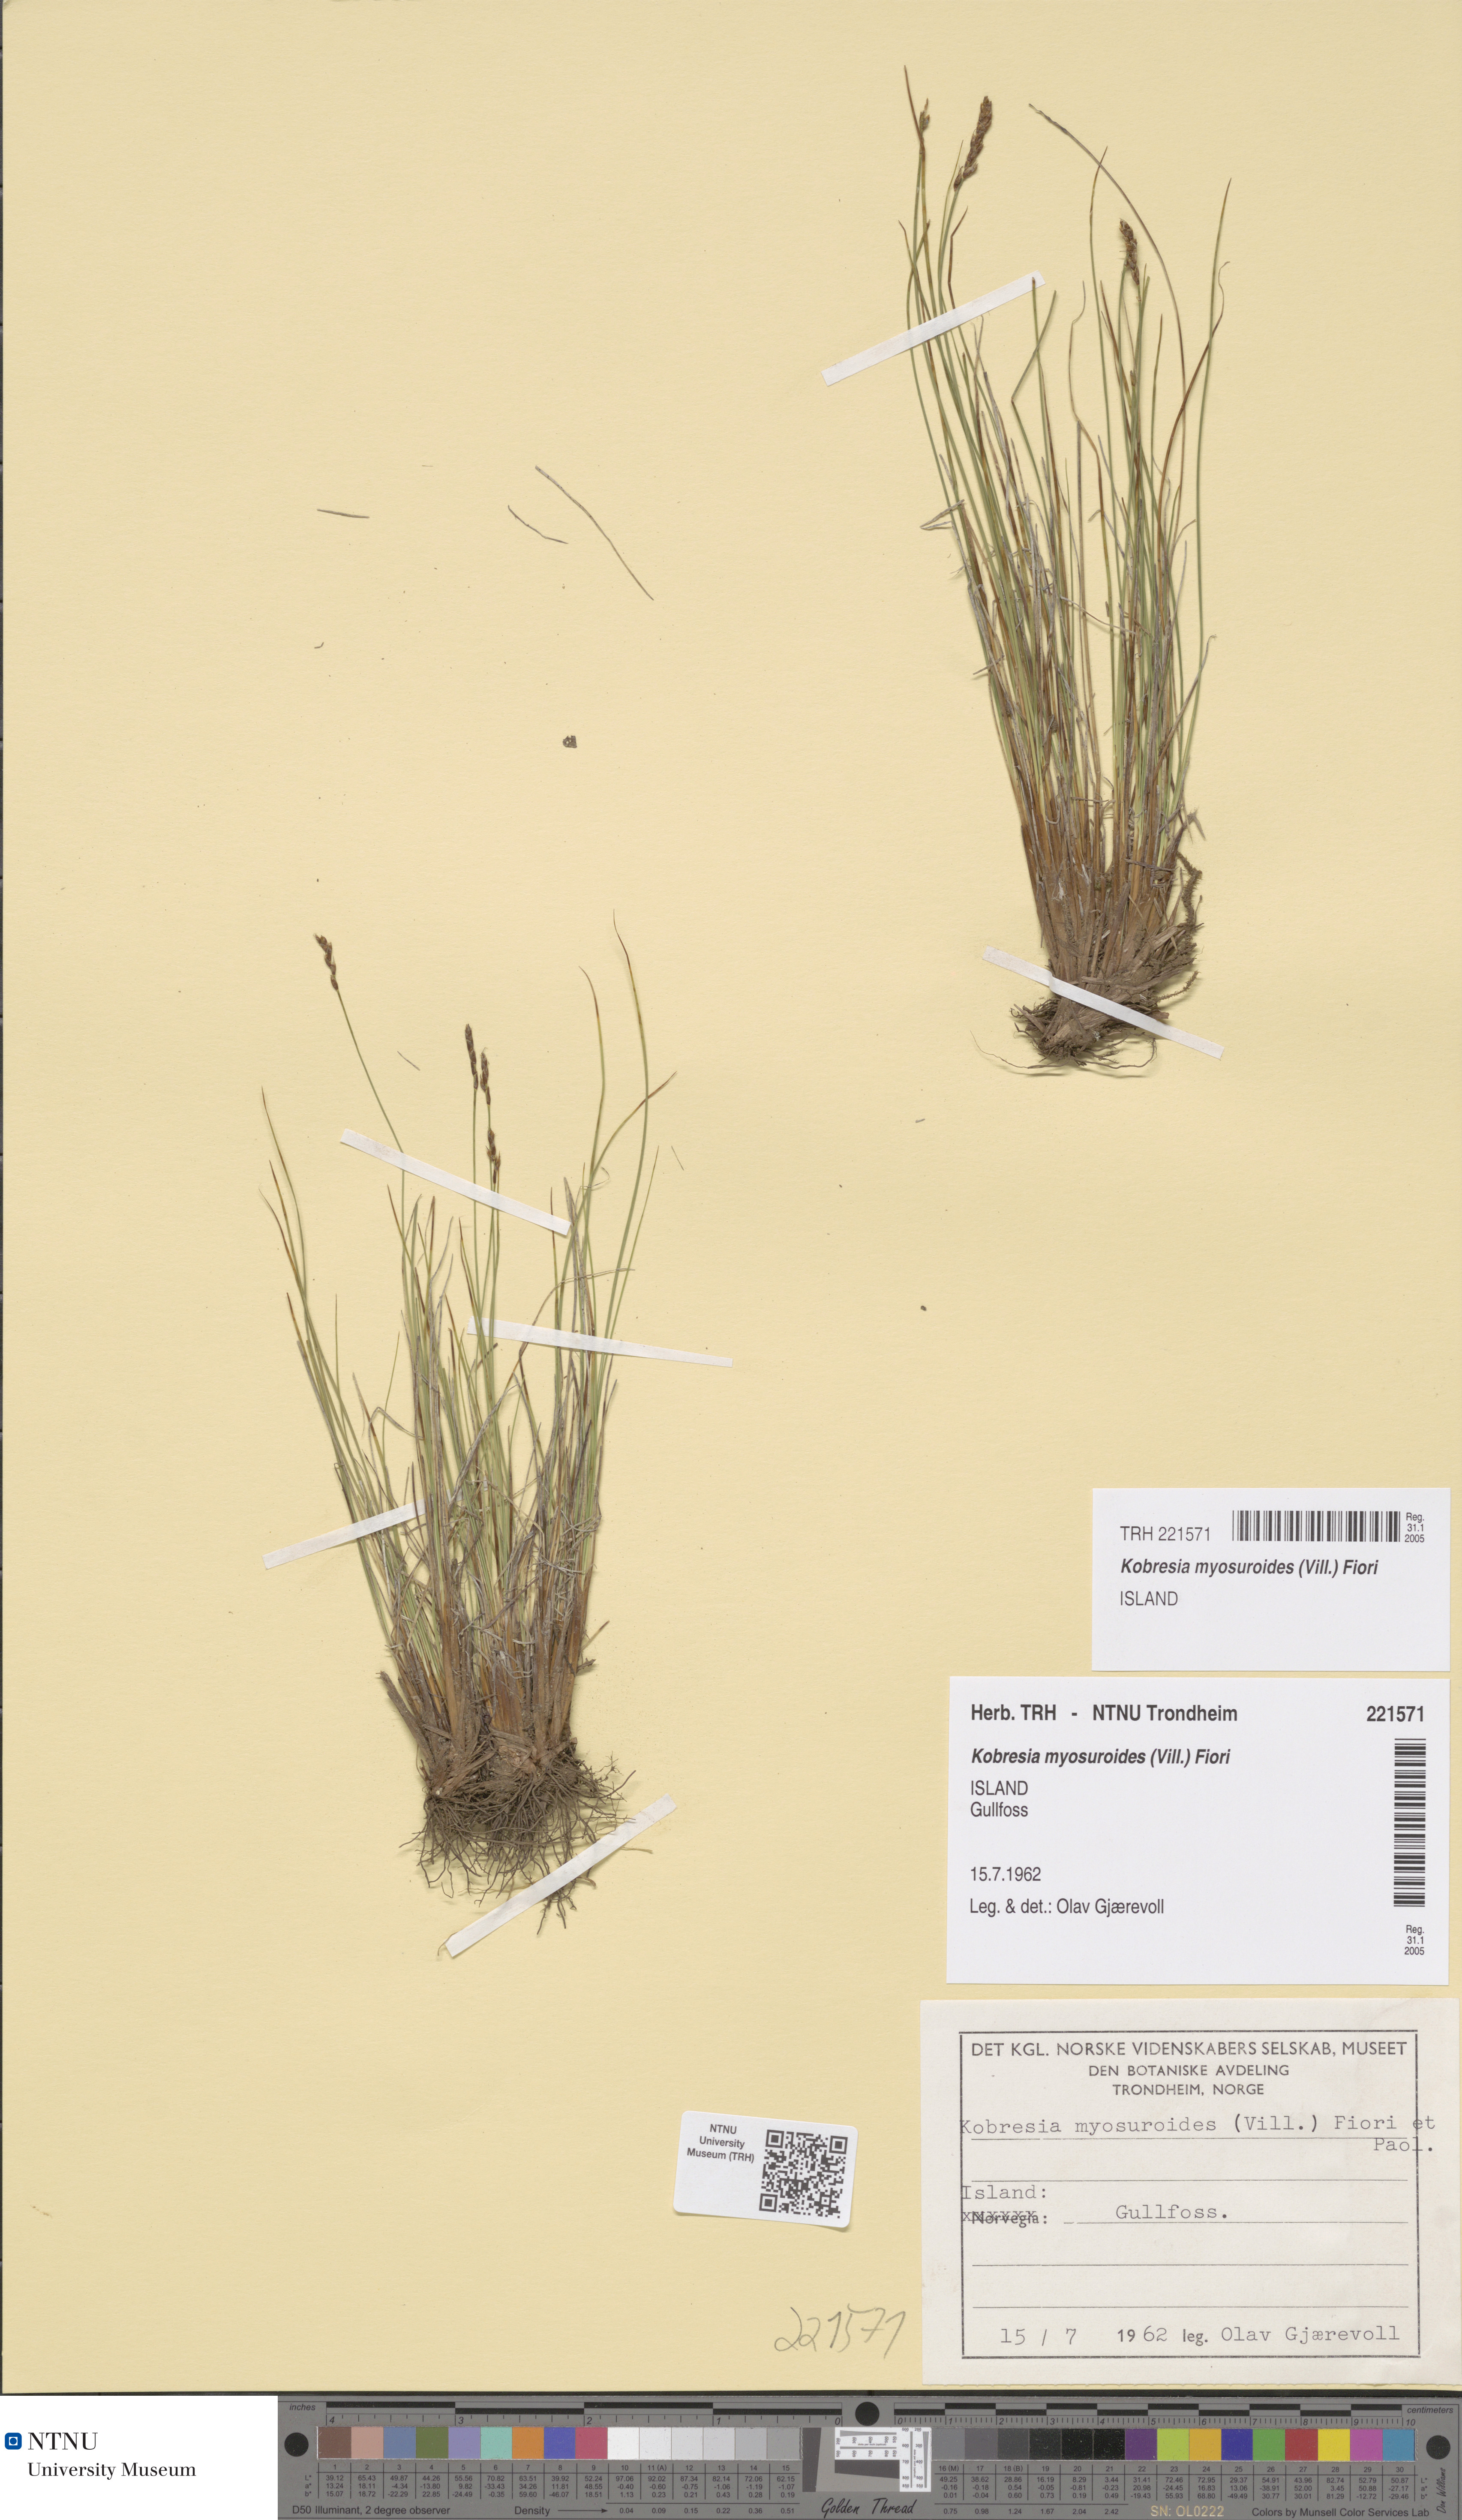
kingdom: Plantae
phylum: Tracheophyta
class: Liliopsida
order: Poales
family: Cyperaceae
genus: Carex
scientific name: Carex myosuroides
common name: Bellard's bog sedge
